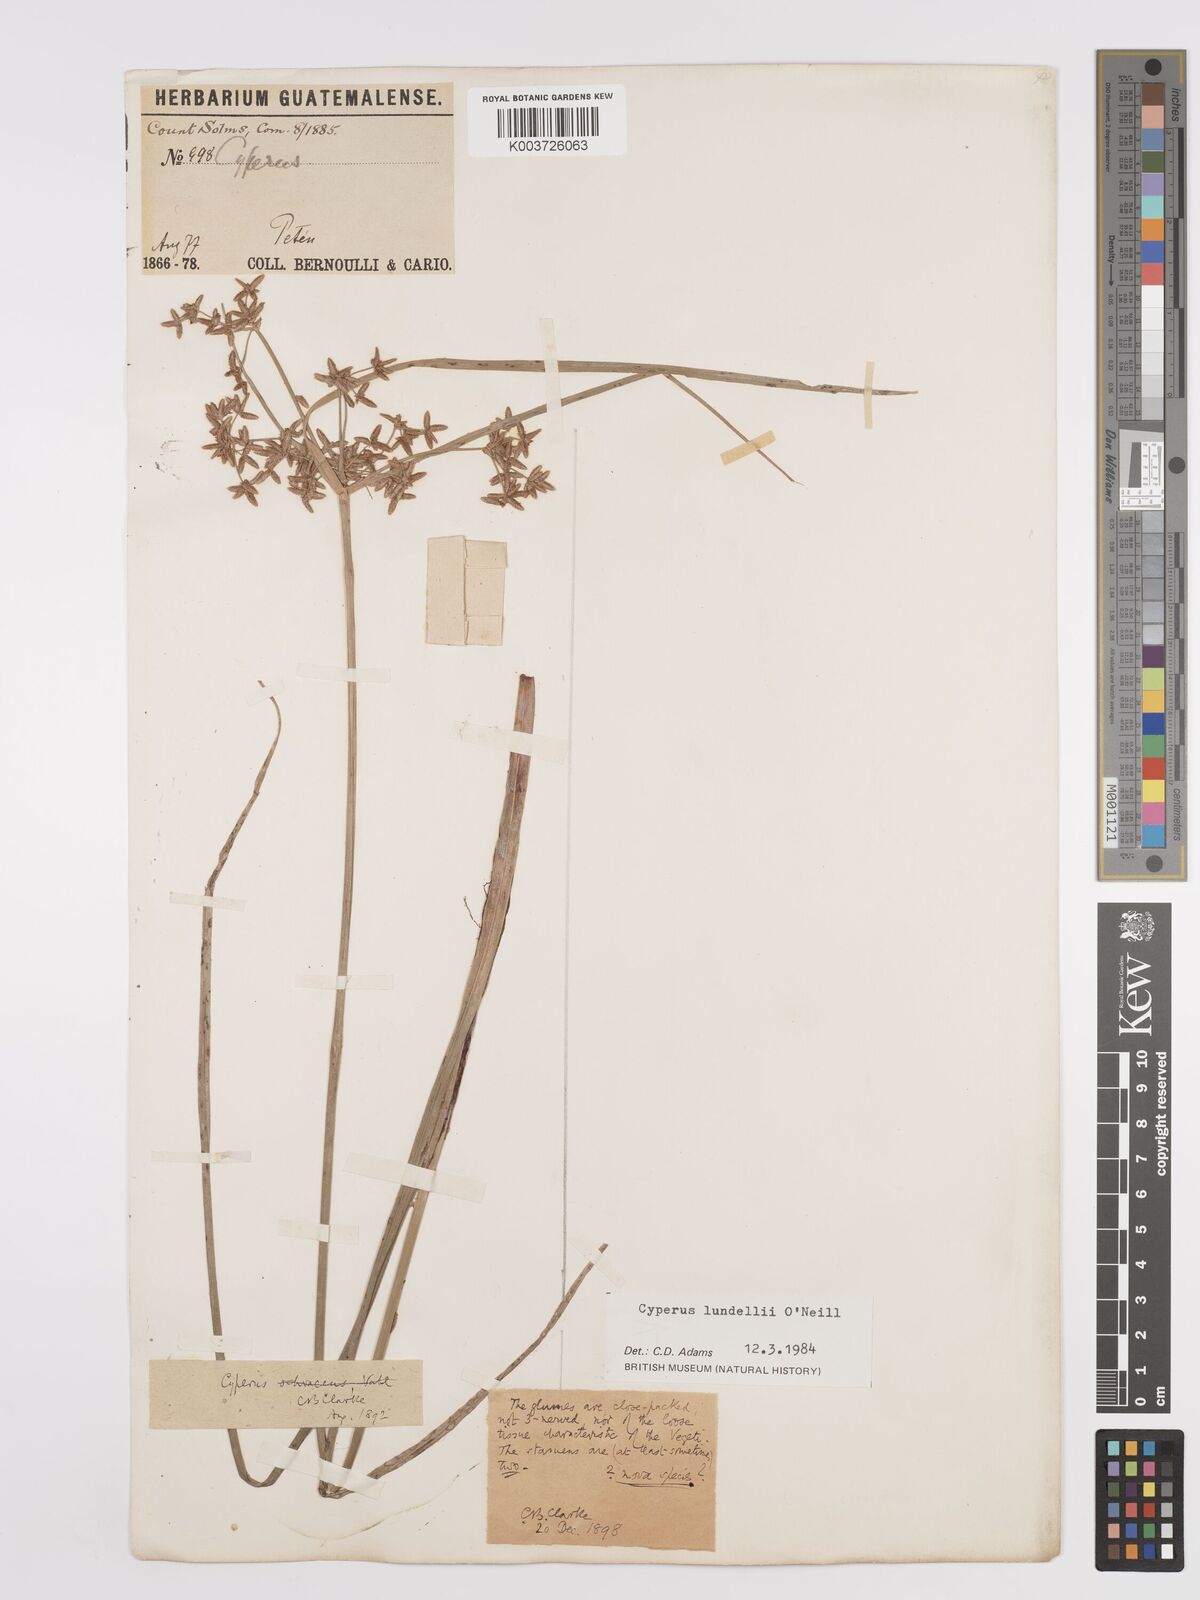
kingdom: Plantae
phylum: Tracheophyta
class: Liliopsida
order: Poales
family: Cyperaceae
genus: Cyperus
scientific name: Cyperus lundellii
